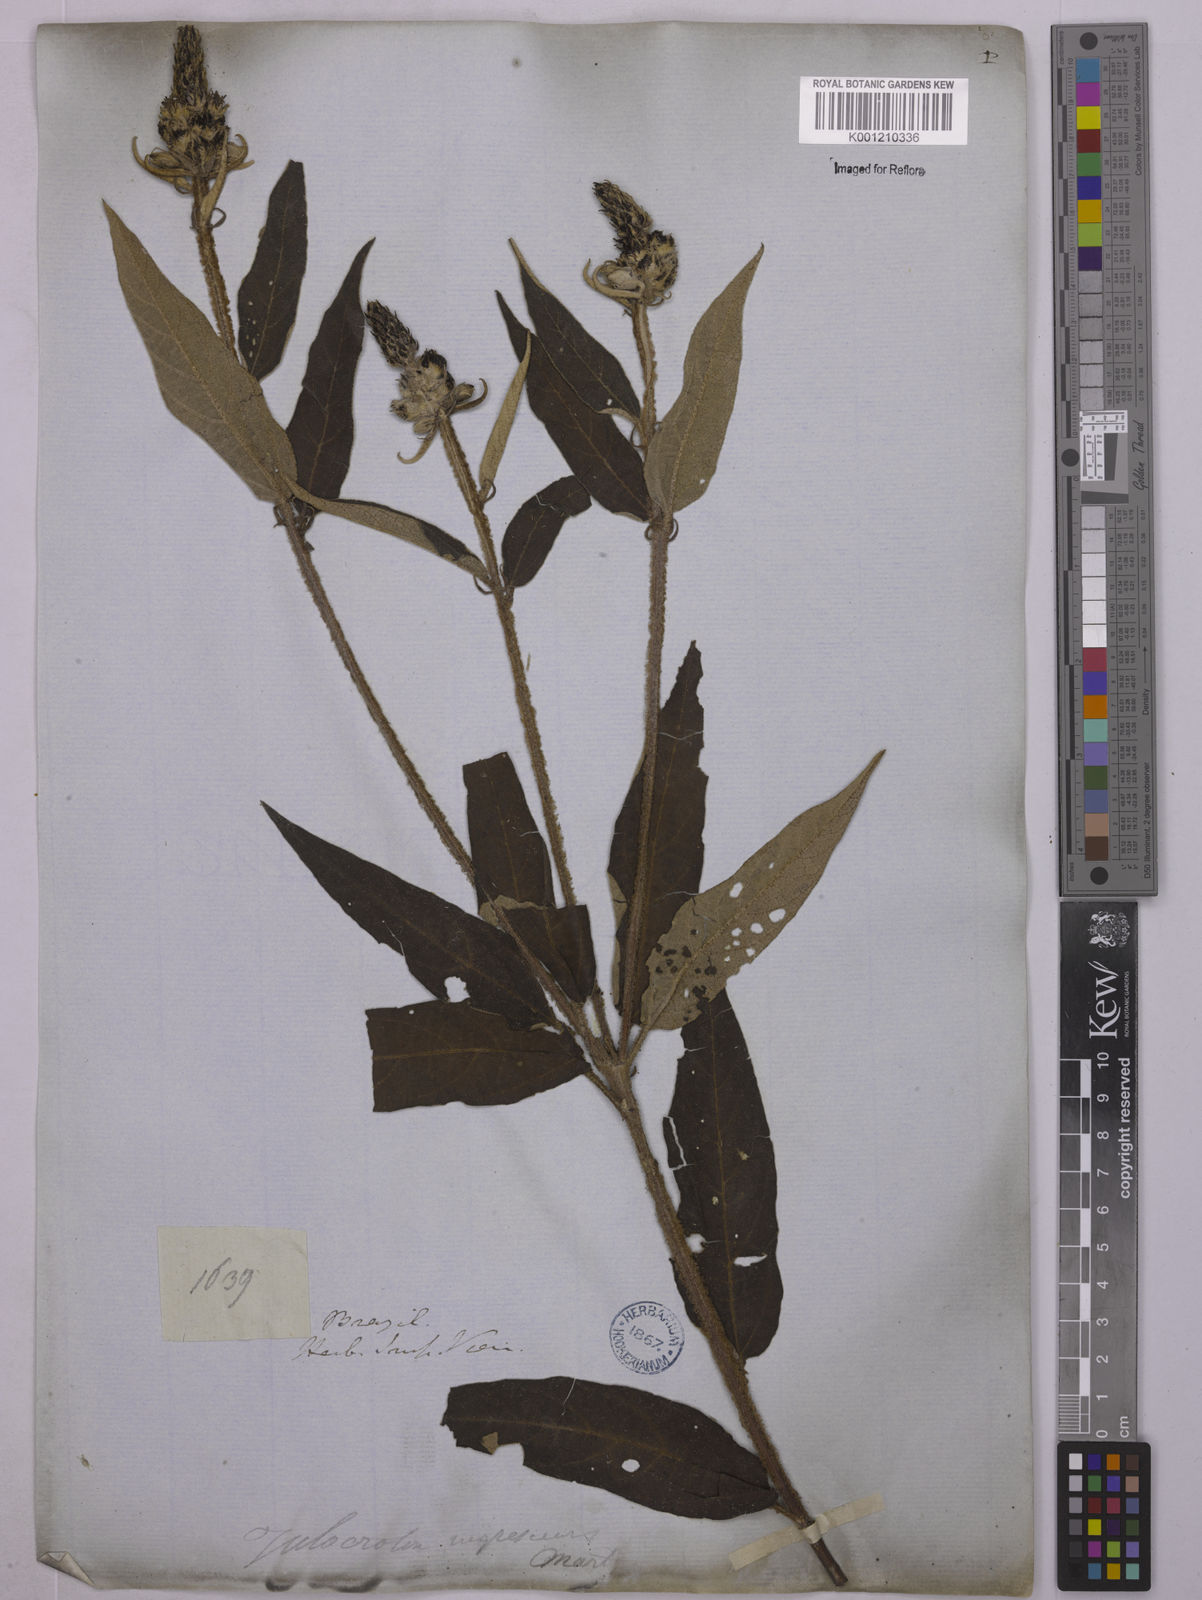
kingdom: Plantae
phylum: Tracheophyta
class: Magnoliopsida
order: Malpighiales
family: Euphorbiaceae
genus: Croton
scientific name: Croton gnaphaloides
